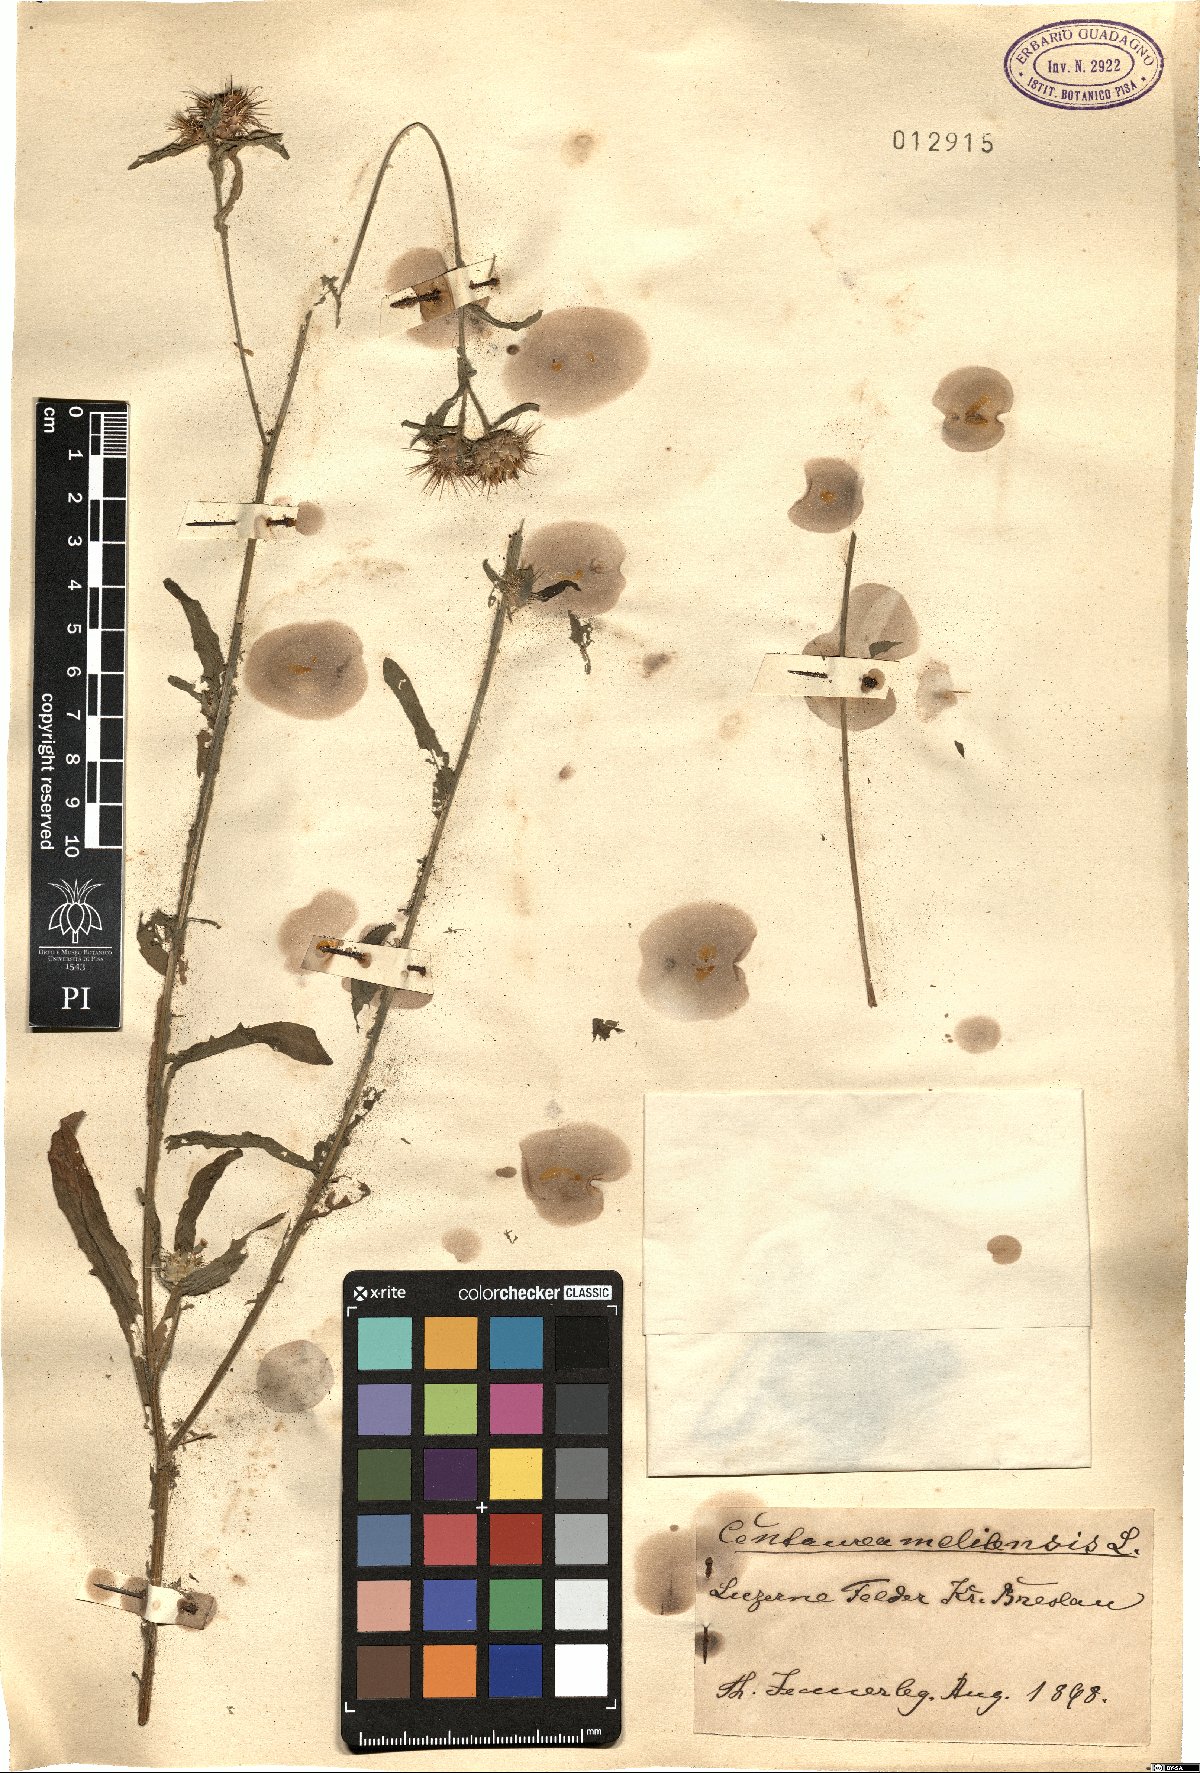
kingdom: Plantae
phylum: Tracheophyta
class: Magnoliopsida
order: Asterales
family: Asteraceae
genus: Centaurea
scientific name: Centaurea melitensis
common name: Maltese star-thistle
